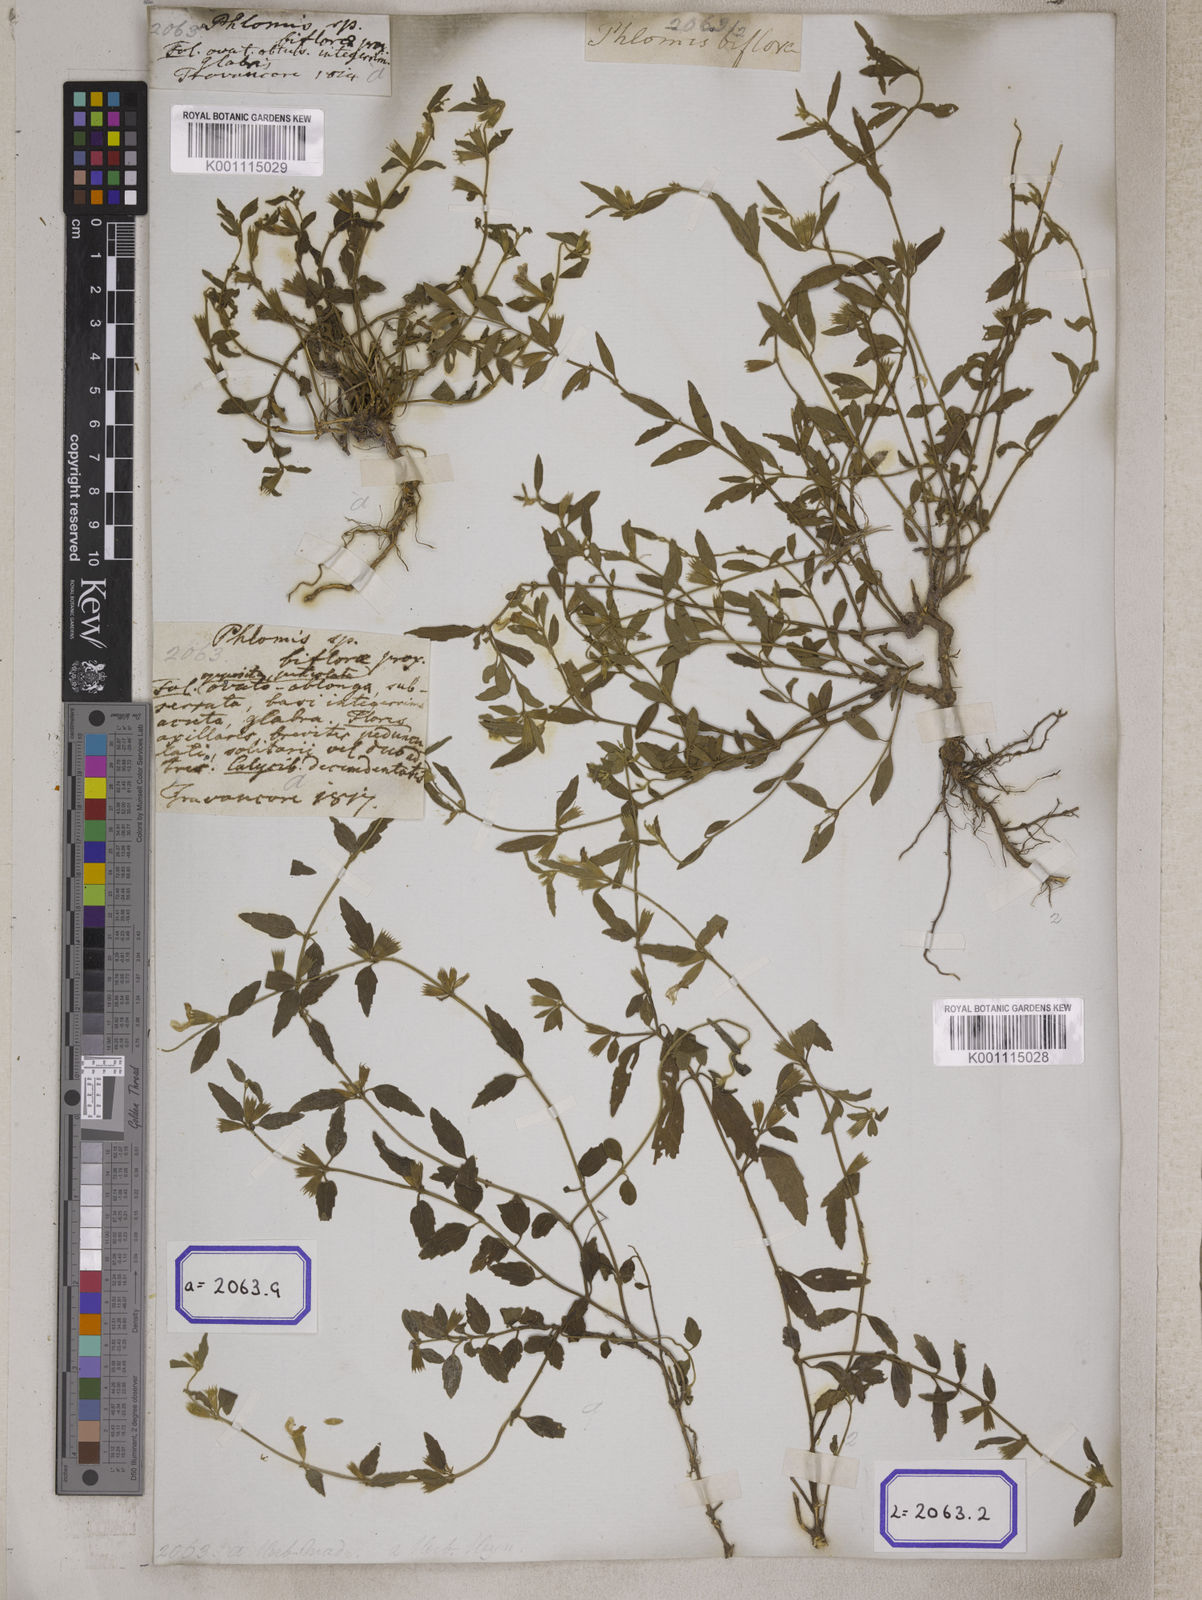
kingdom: Plantae
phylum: Tracheophyta
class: Magnoliopsida
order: Lamiales
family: Lamiaceae
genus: Leucas
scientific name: Leucas
